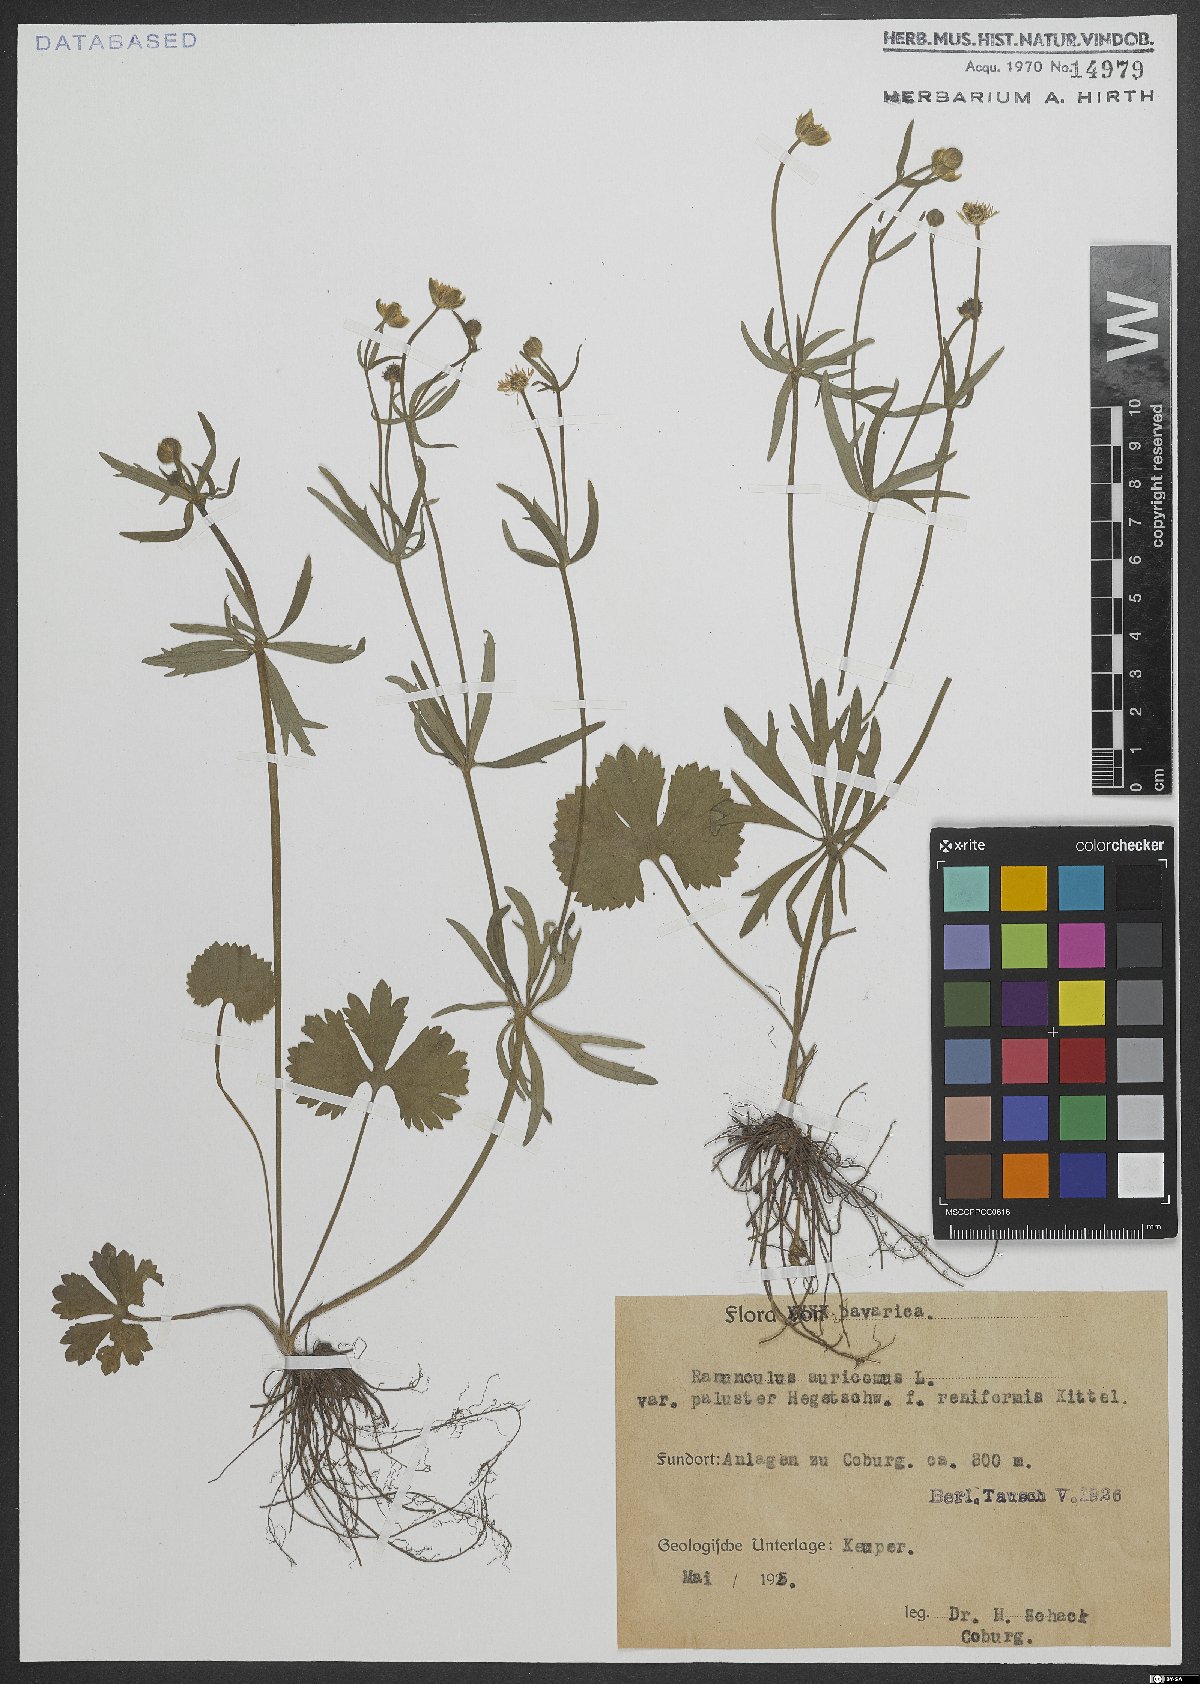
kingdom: Plantae
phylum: Tracheophyta
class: Magnoliopsida
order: Ranunculales
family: Ranunculaceae
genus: Ranunculus
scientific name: Ranunculus auricomus
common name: Goldilocks buttercup
